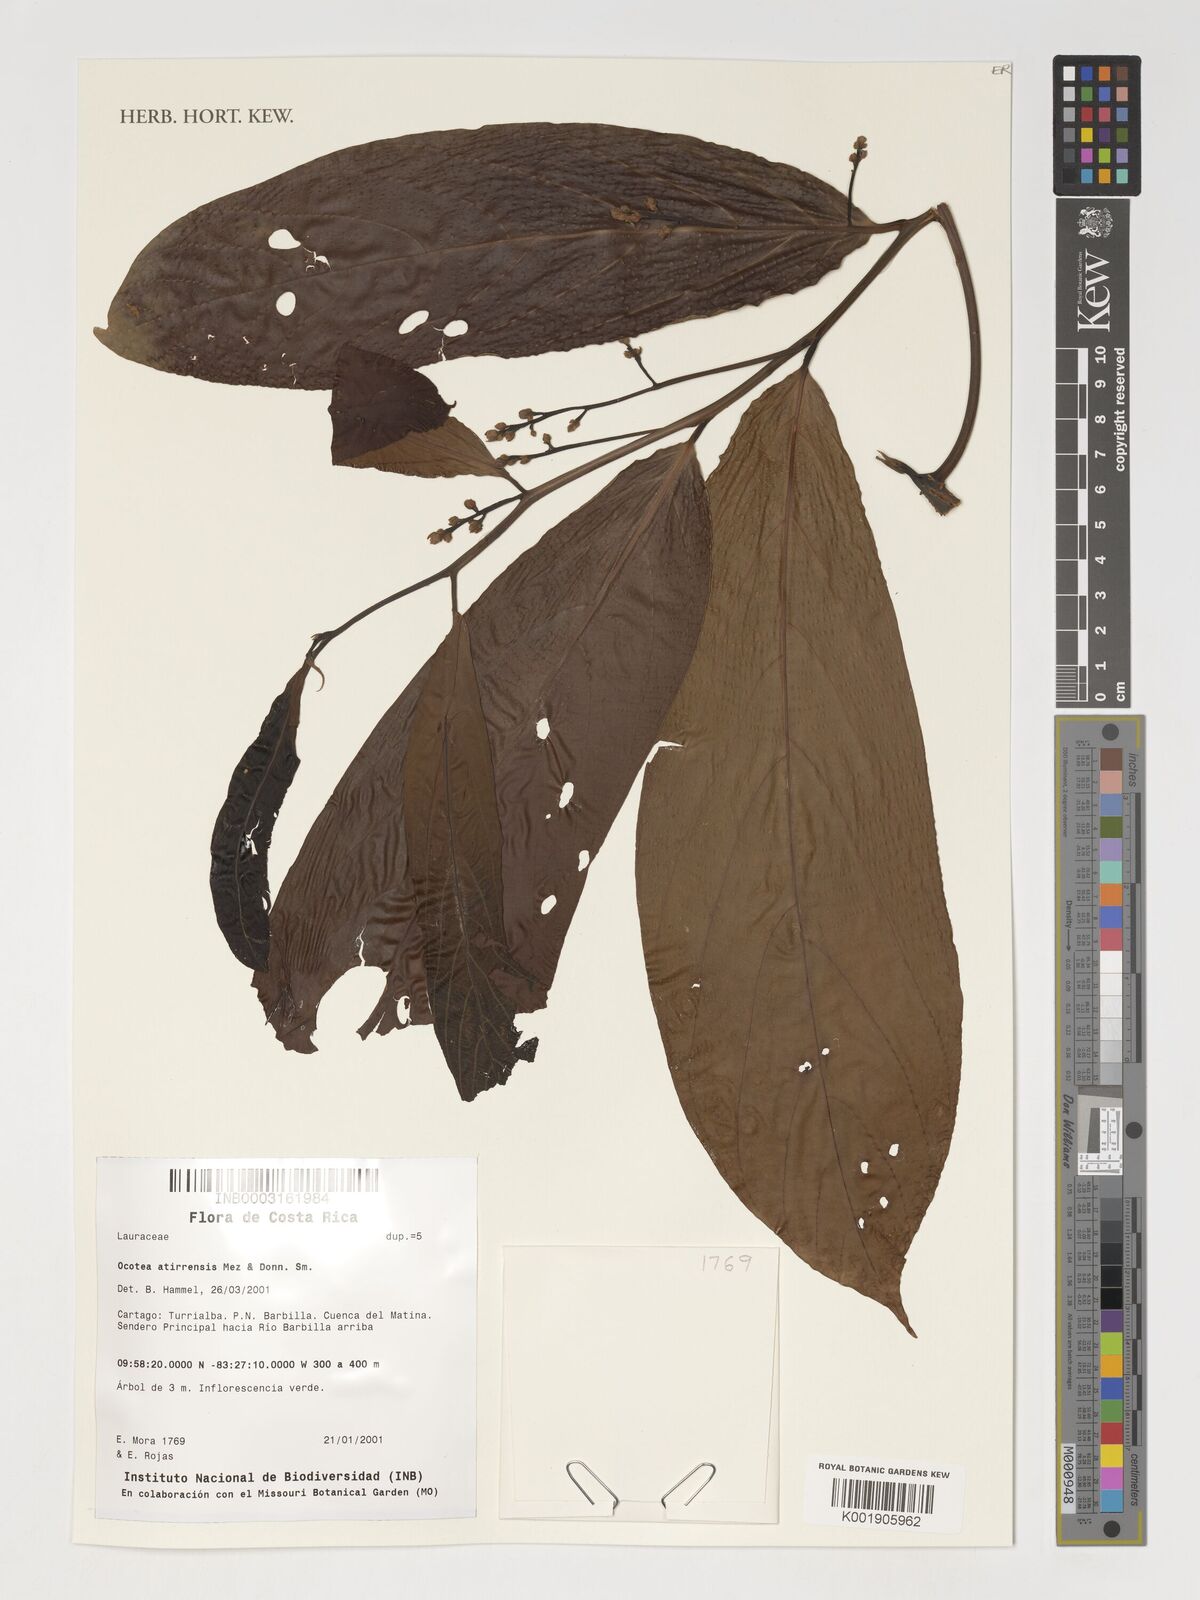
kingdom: Plantae
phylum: Tracheophyta
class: Magnoliopsida
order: Laurales
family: Lauraceae
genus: Ocotea
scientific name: Ocotea atirrensis
